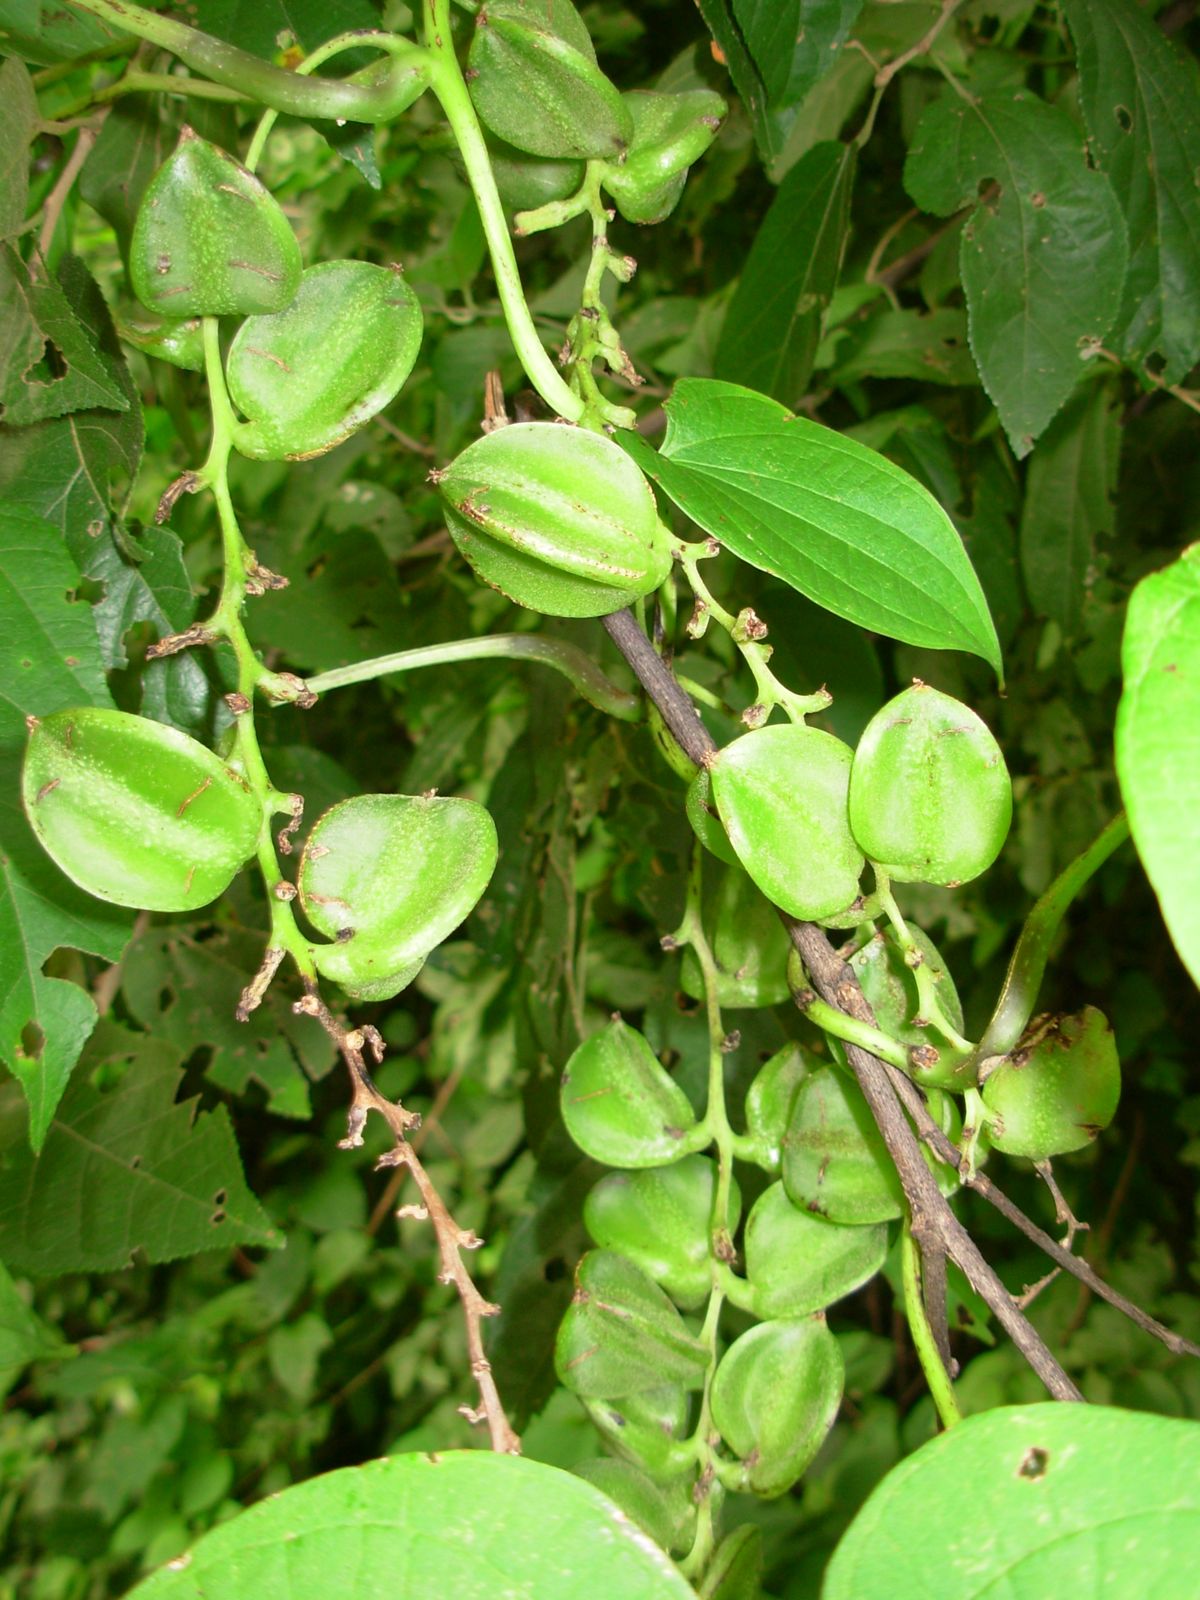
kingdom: Plantae
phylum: Tracheophyta
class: Liliopsida
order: Dioscoreales
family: Dioscoreaceae
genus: Dioscorea
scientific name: Dioscorea mexicana
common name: Mexican yam
